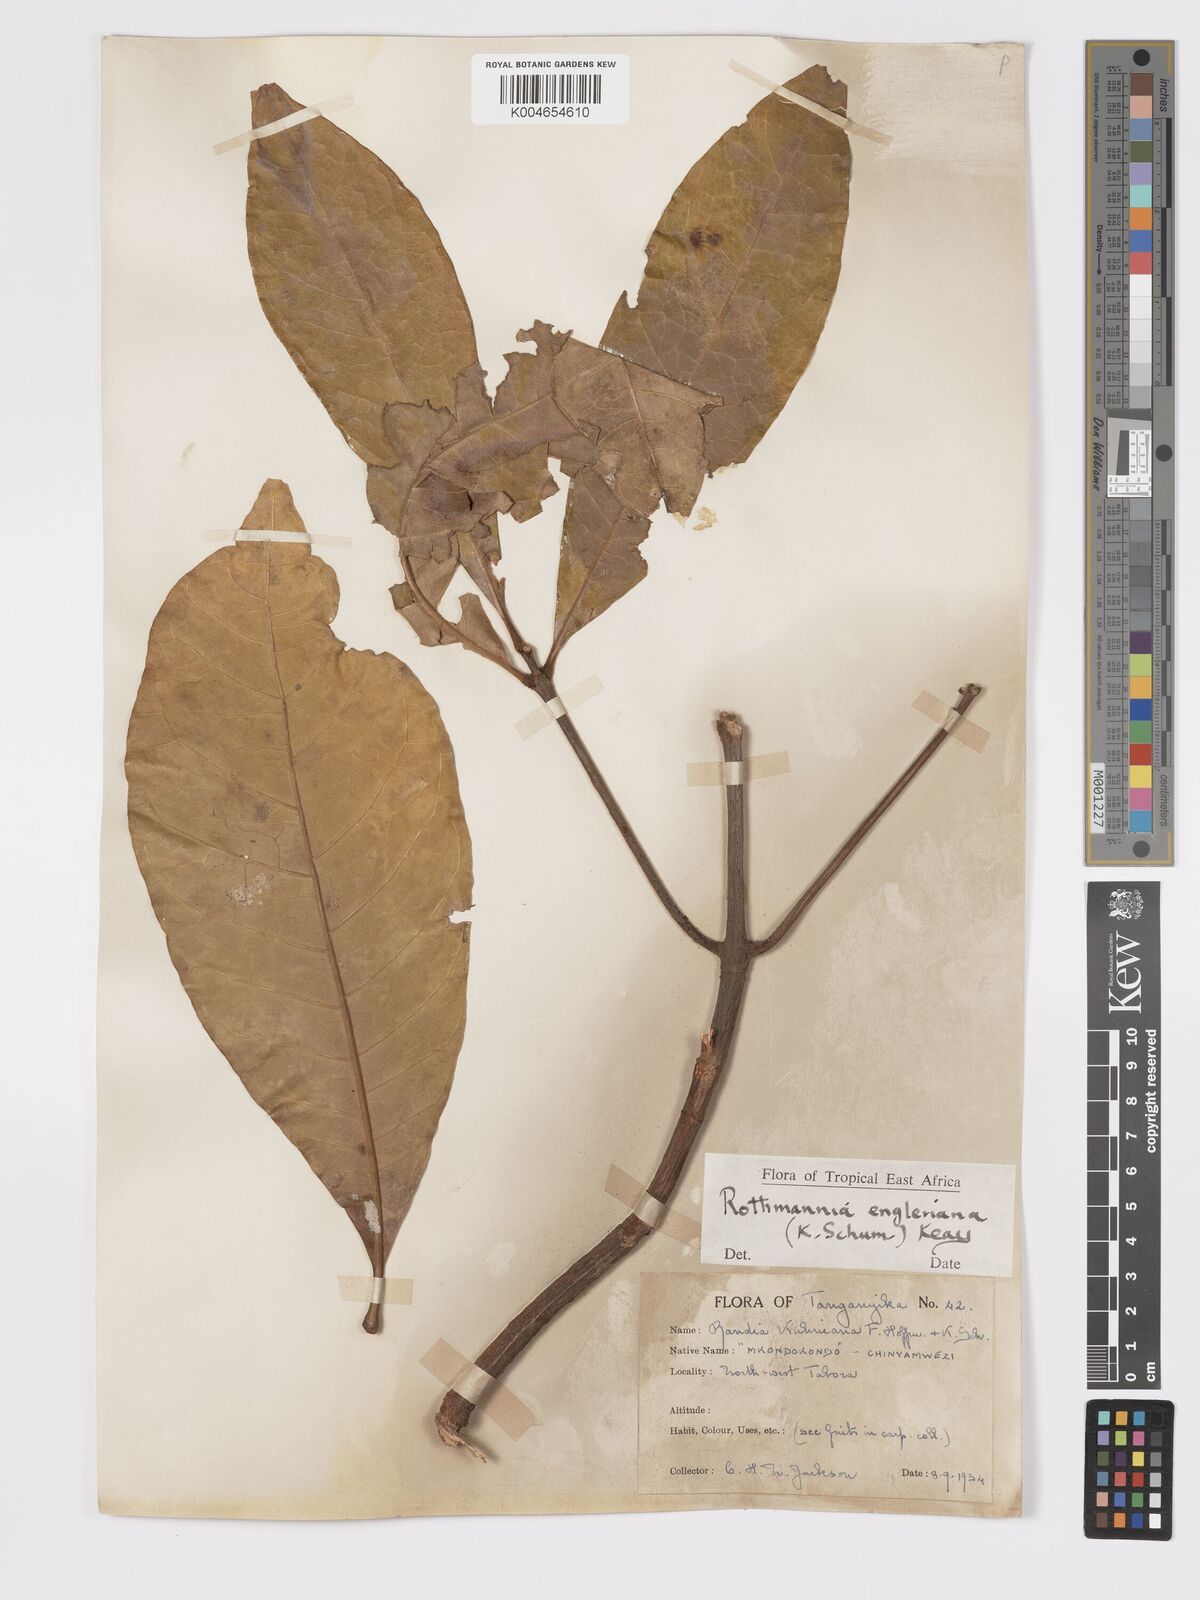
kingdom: Plantae
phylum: Tracheophyta
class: Magnoliopsida
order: Gentianales
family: Rubiaceae
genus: Rothmannia
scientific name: Rothmannia engleriana
